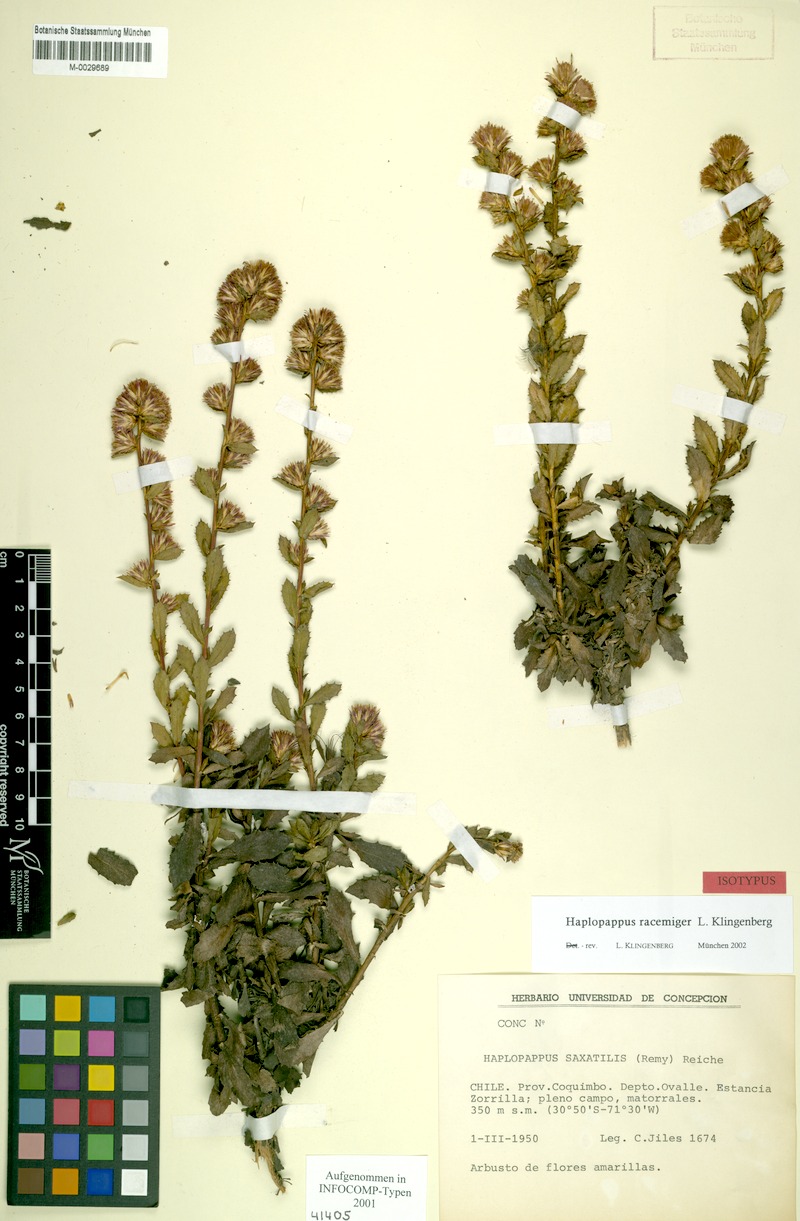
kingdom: Plantae
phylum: Tracheophyta
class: Magnoliopsida
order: Asterales
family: Asteraceae
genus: Haplopappus
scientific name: Haplopappus racemiger
